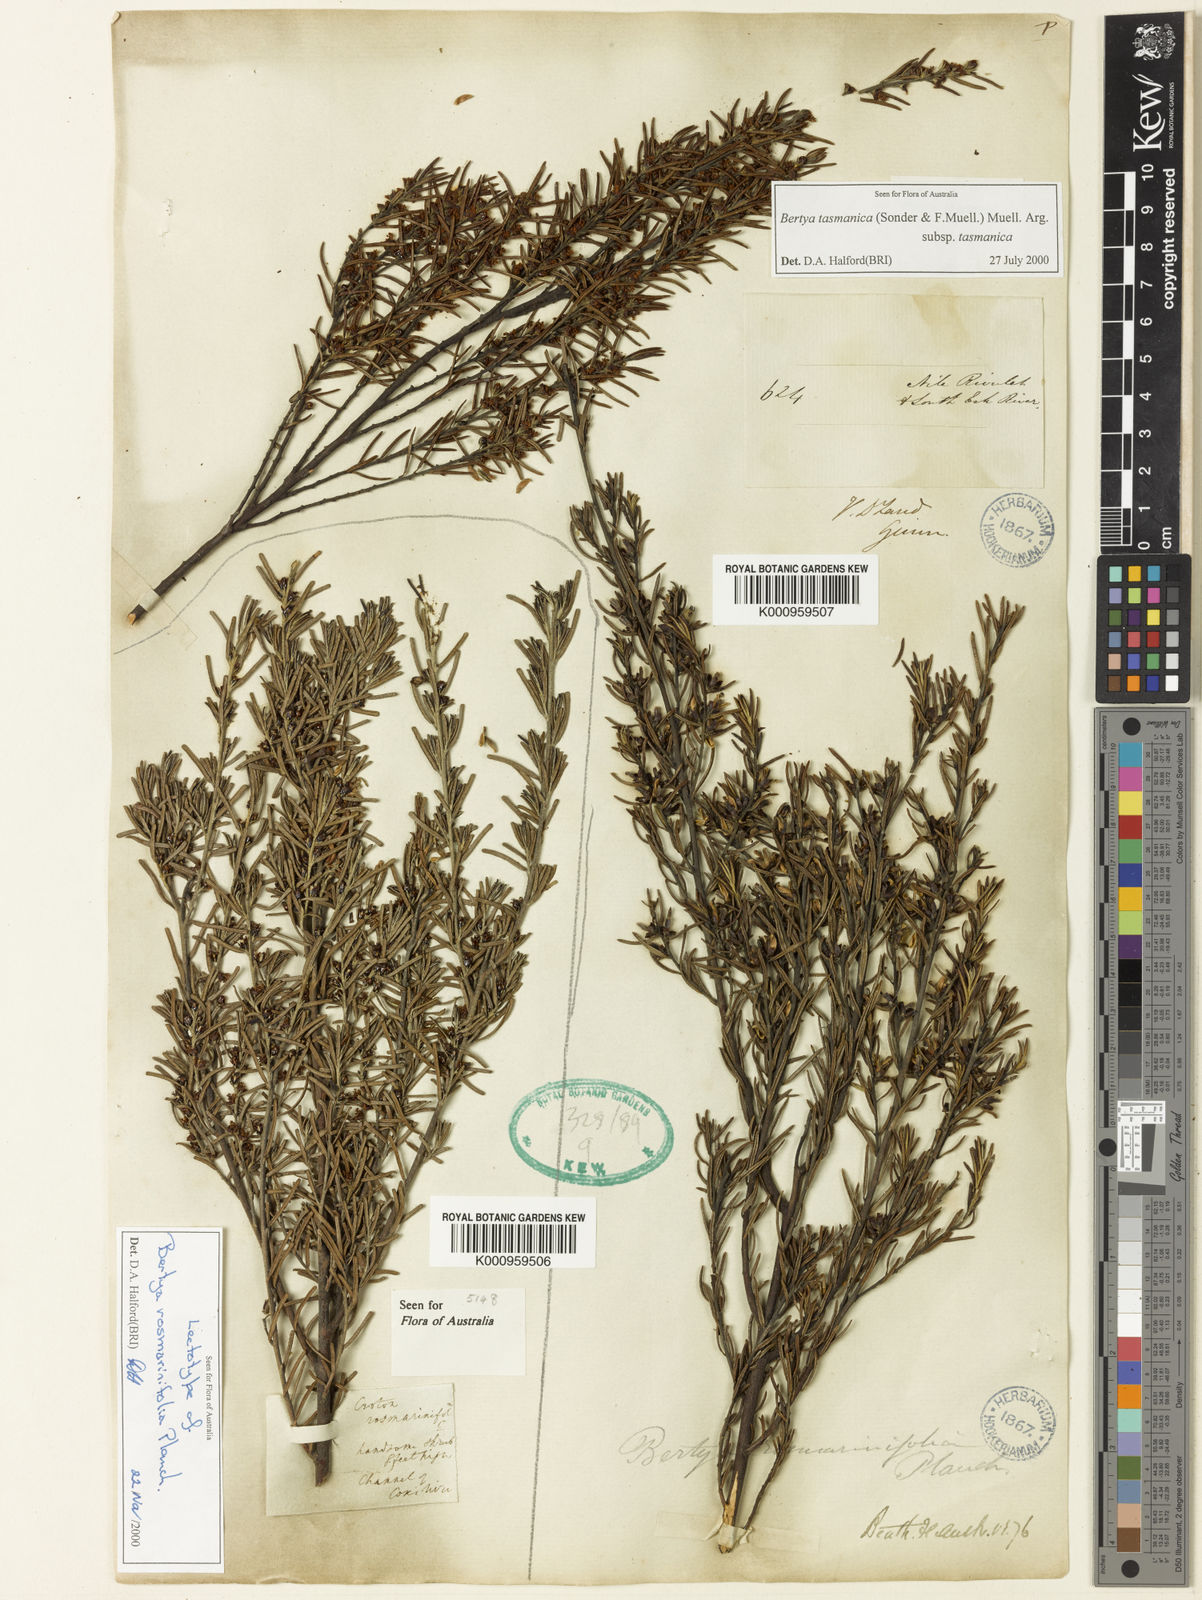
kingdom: Plantae
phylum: Tracheophyta
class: Magnoliopsida
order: Malpighiales
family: Euphorbiaceae
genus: Bertya
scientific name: Bertya rosmarinifolia
